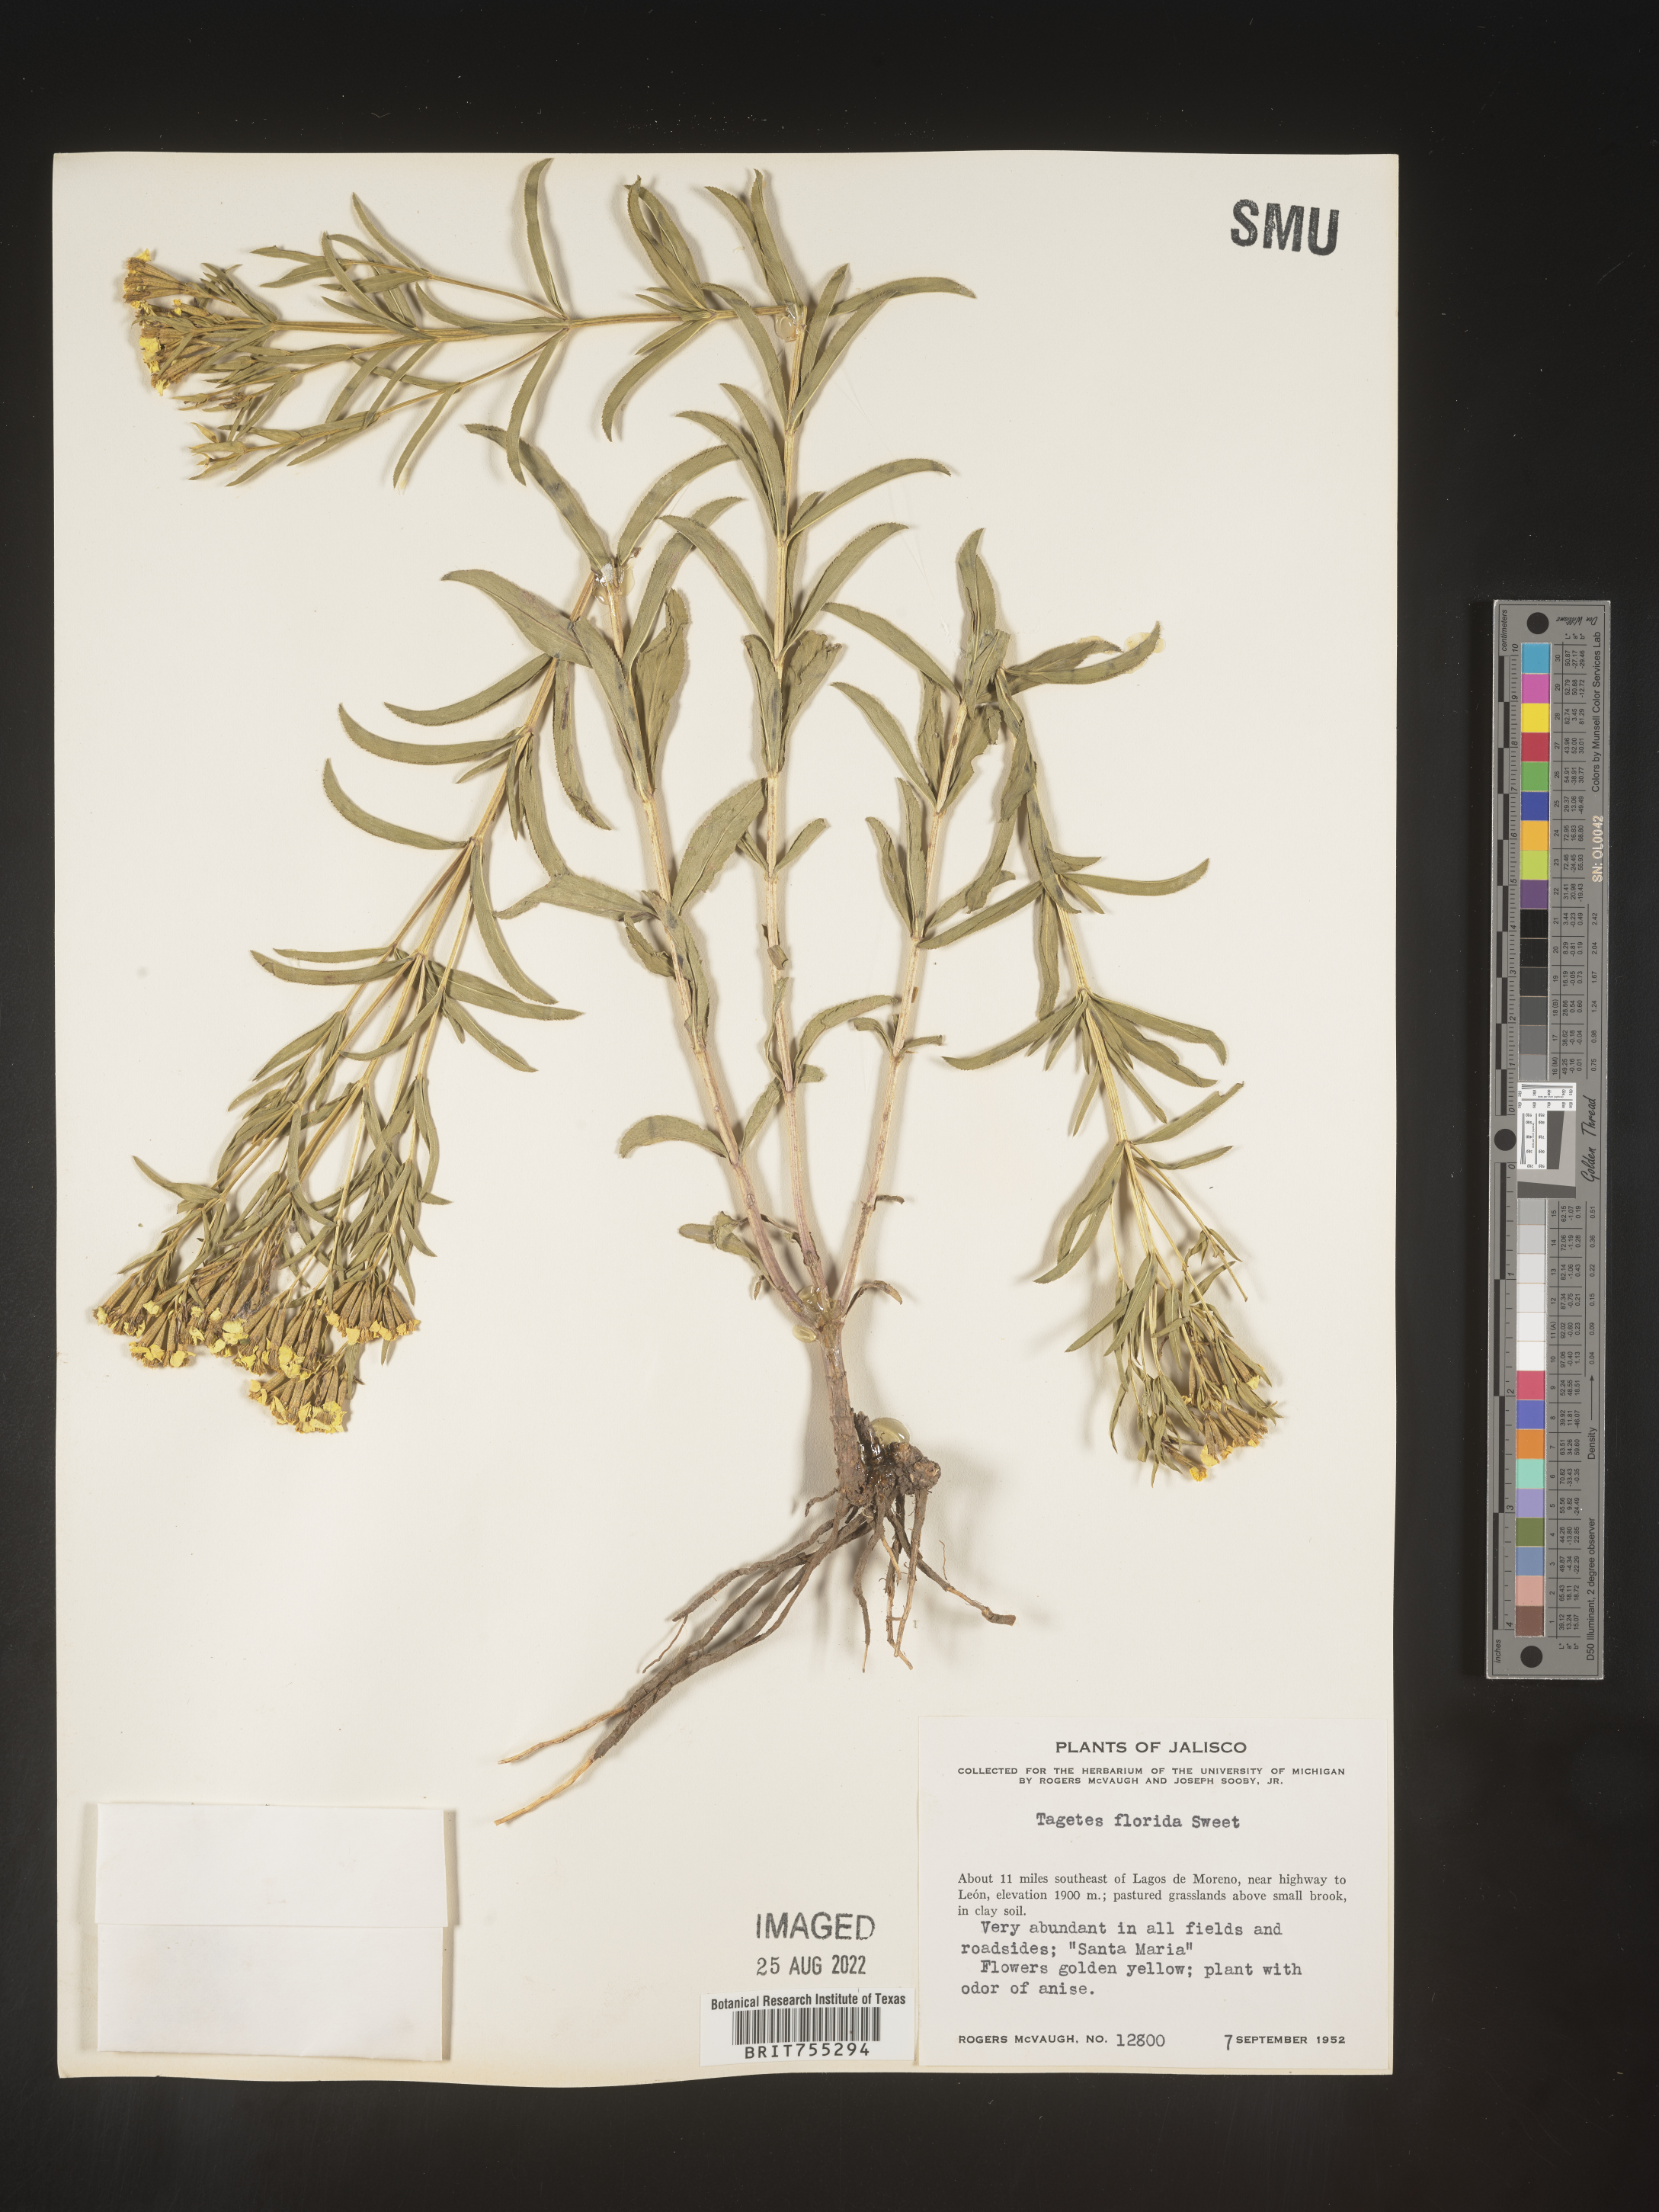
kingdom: Plantae
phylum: Tracheophyta
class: Magnoliopsida
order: Asterales
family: Asteraceae
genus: Tagetes
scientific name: Tagetes
